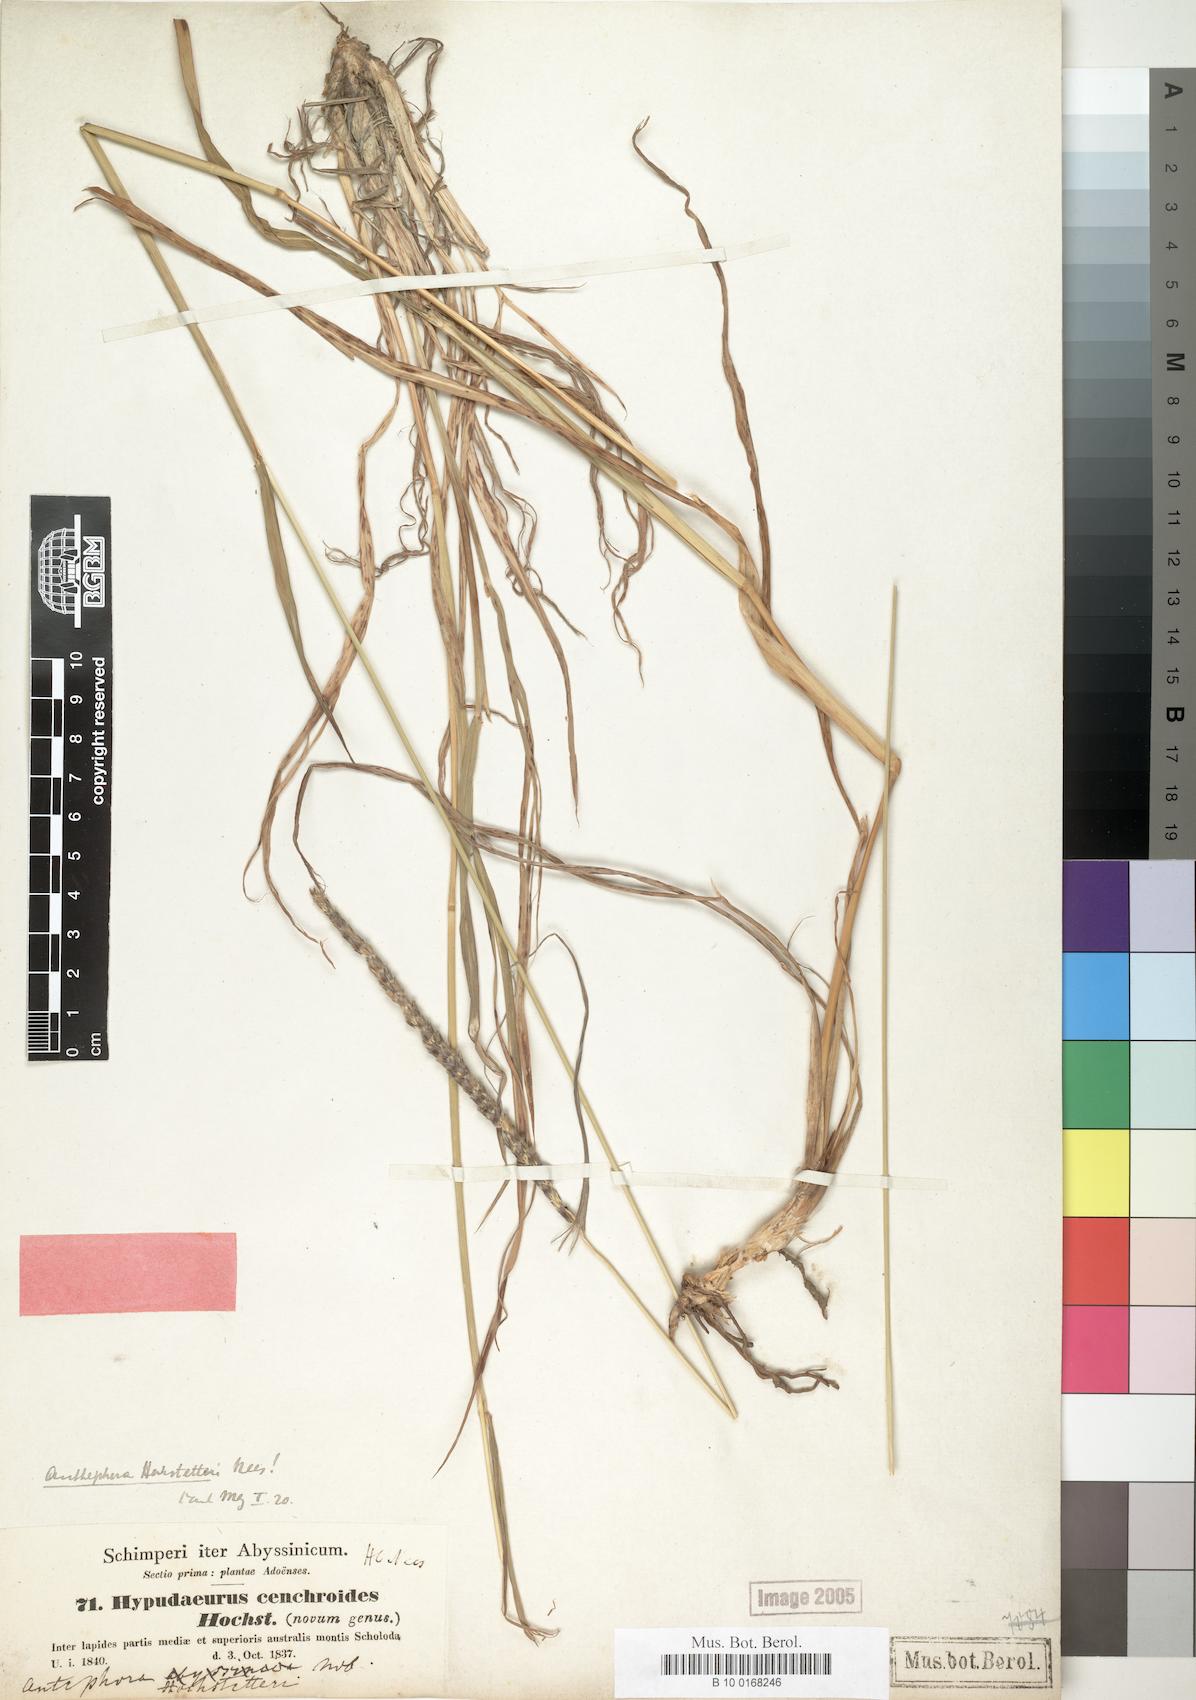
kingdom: Plantae
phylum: Tracheophyta
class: Liliopsida
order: Poales
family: Poaceae
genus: Anthephora
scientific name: Anthephora pubescens
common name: Wool grass
